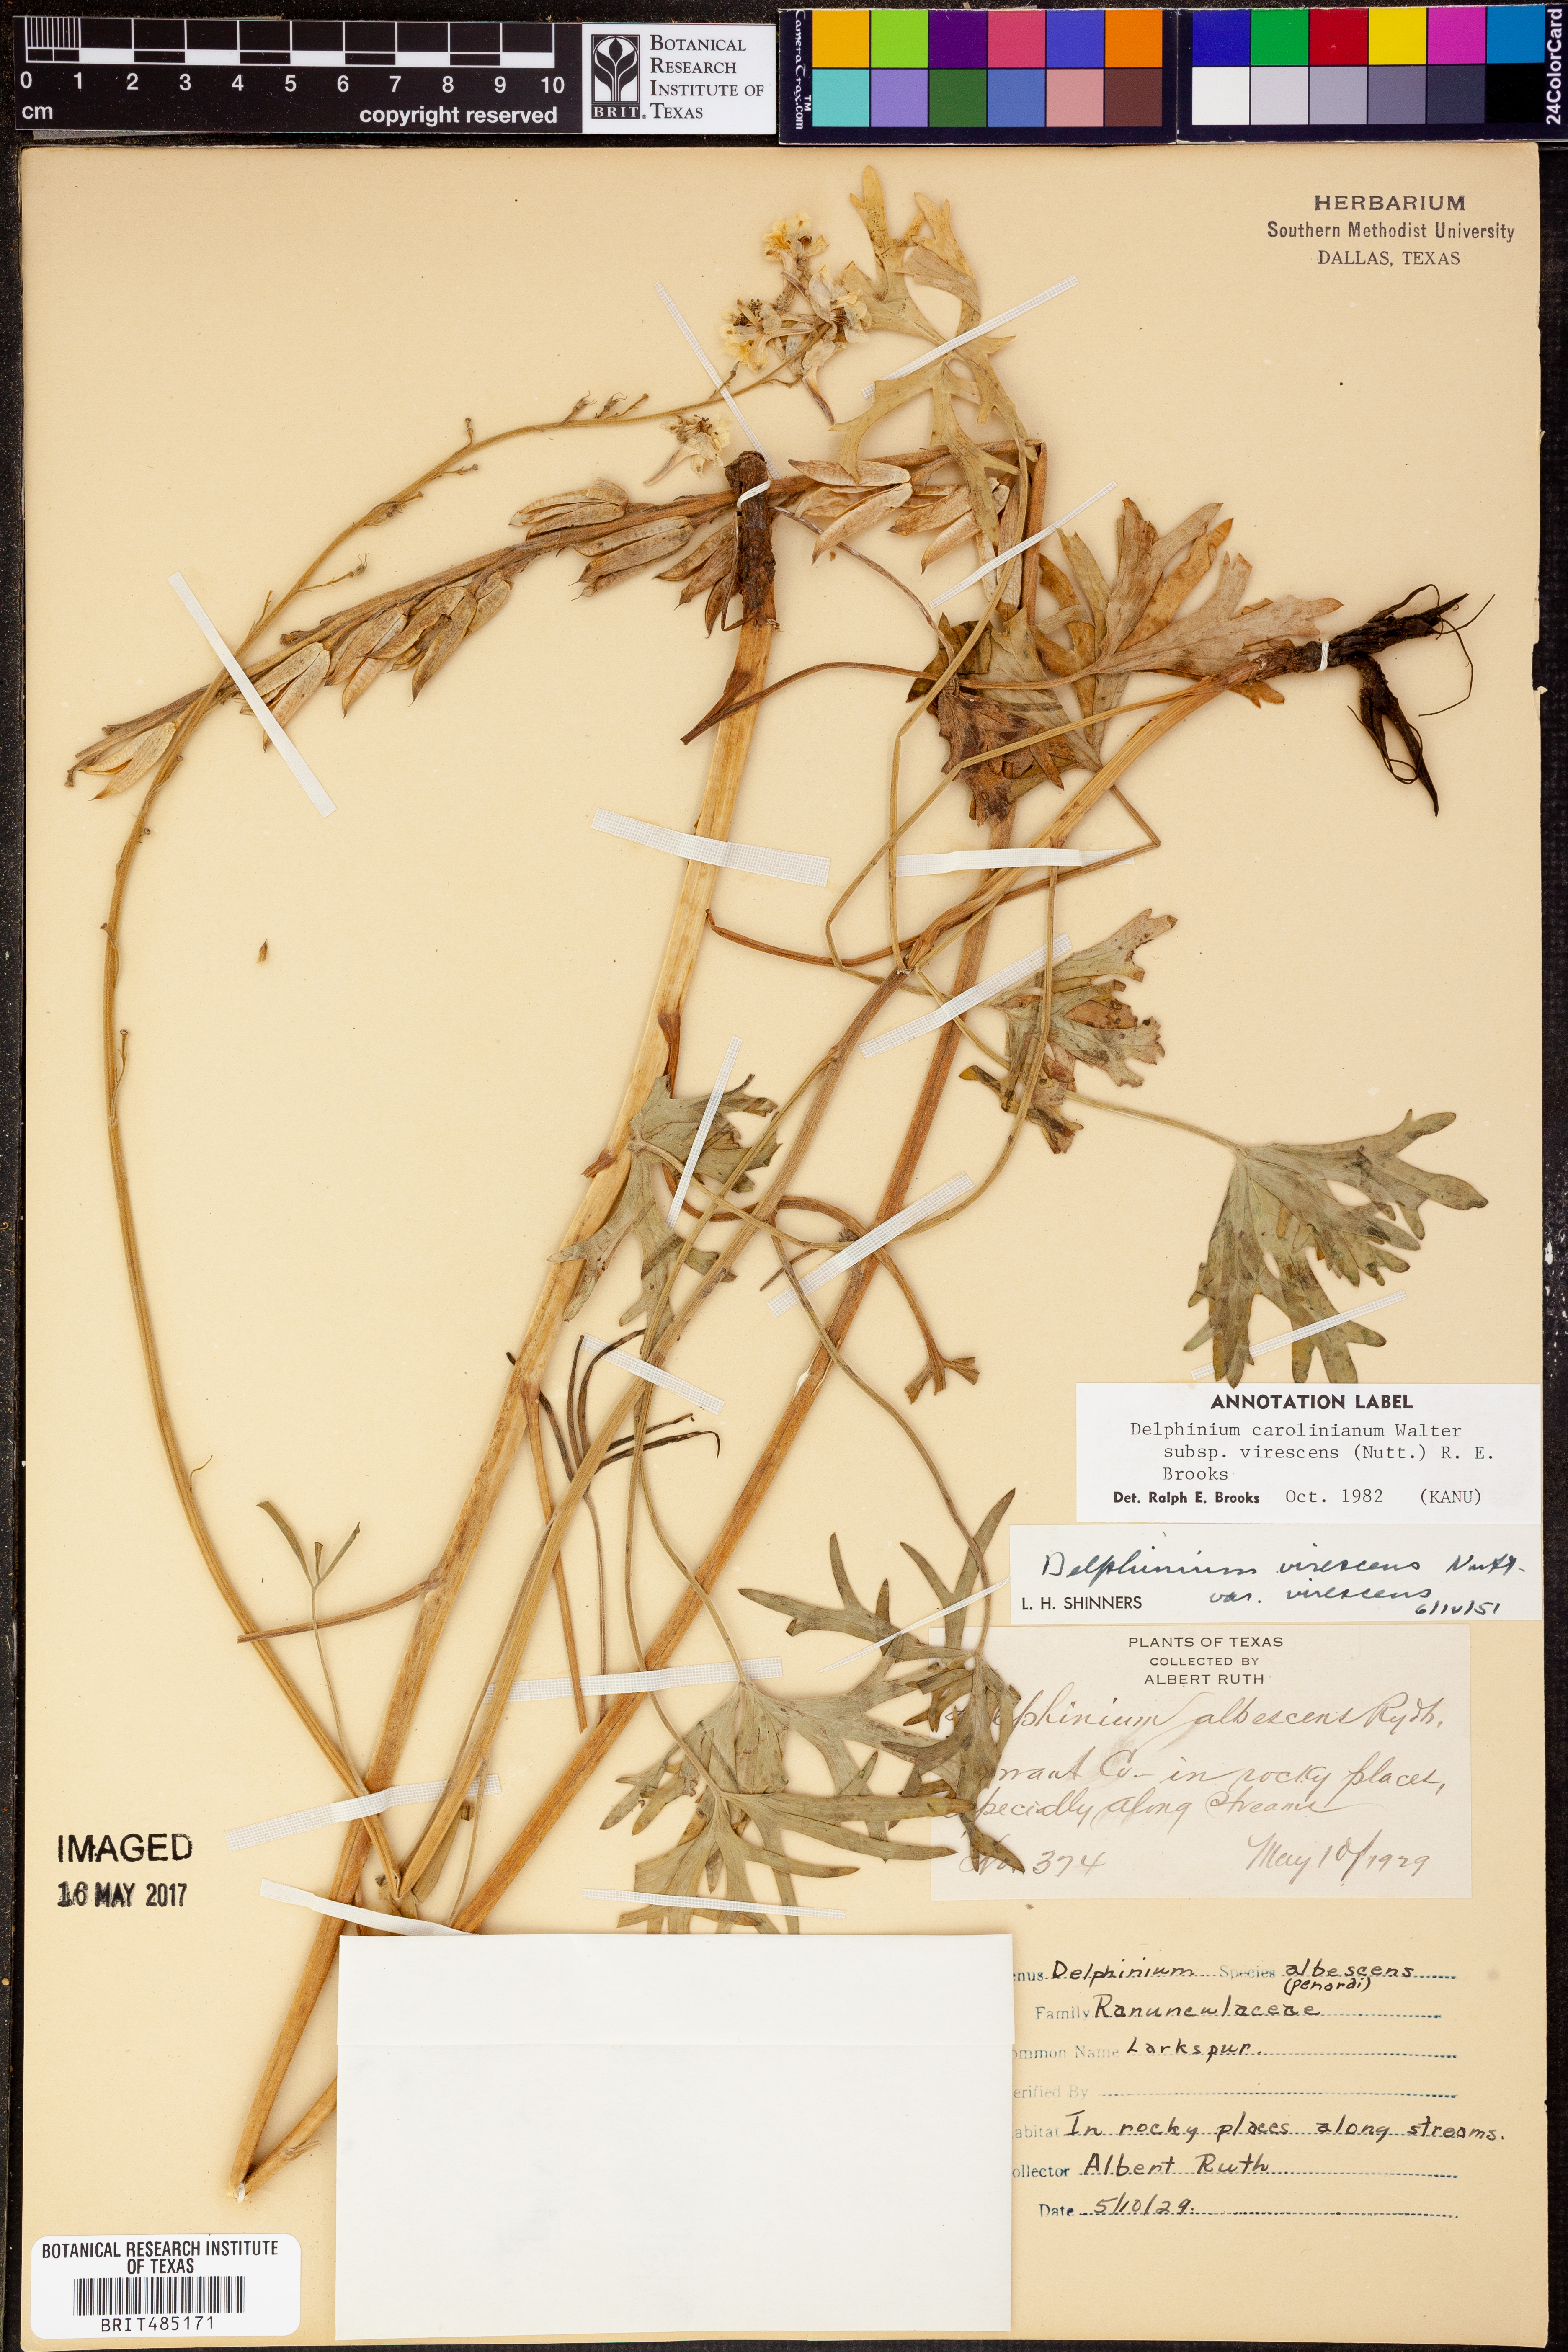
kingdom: Plantae
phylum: Tracheophyta
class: Magnoliopsida
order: Ranunculales
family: Ranunculaceae
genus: Delphinium
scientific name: Delphinium carolinianum
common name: Carolina larkspur
